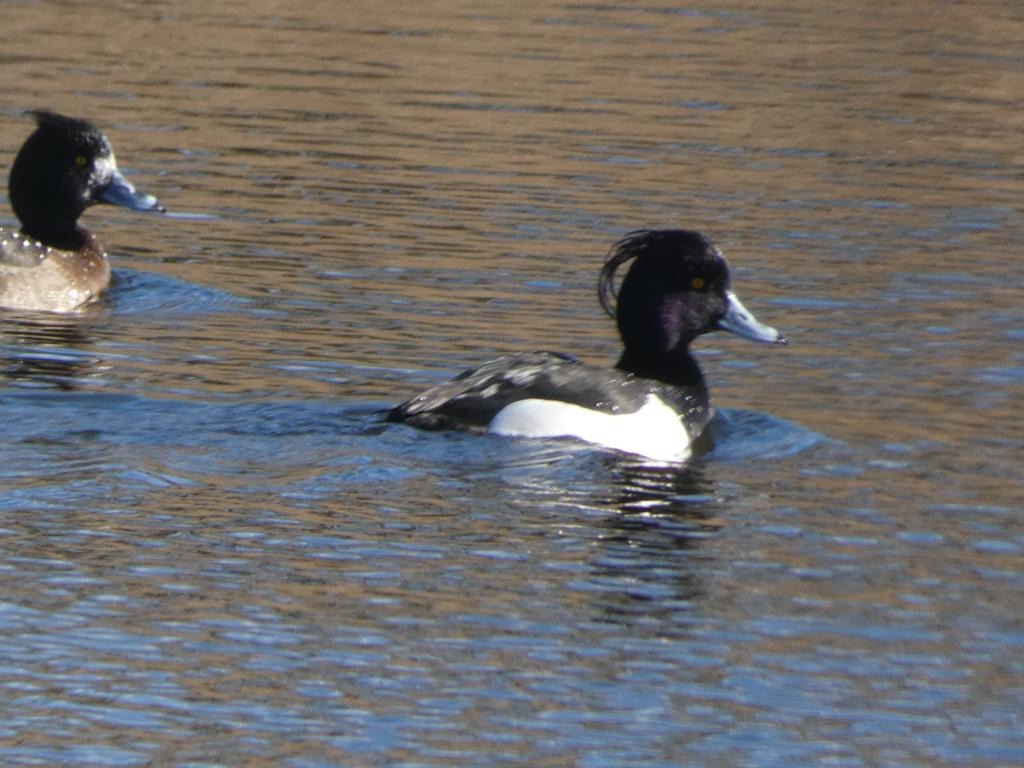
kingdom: Animalia
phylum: Chordata
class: Aves
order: Anseriformes
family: Anatidae
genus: Aythya
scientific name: Aythya fuligula
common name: Troldand
